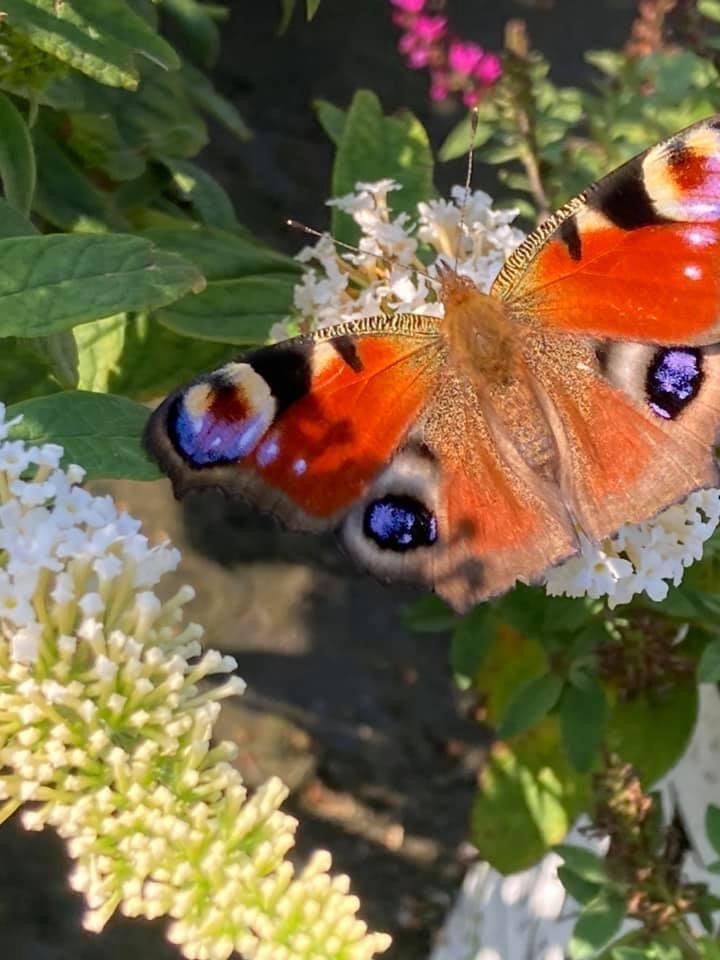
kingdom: Animalia
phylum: Arthropoda
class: Insecta
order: Lepidoptera
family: Nymphalidae
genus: Aglais
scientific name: Aglais io
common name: European Peacock
